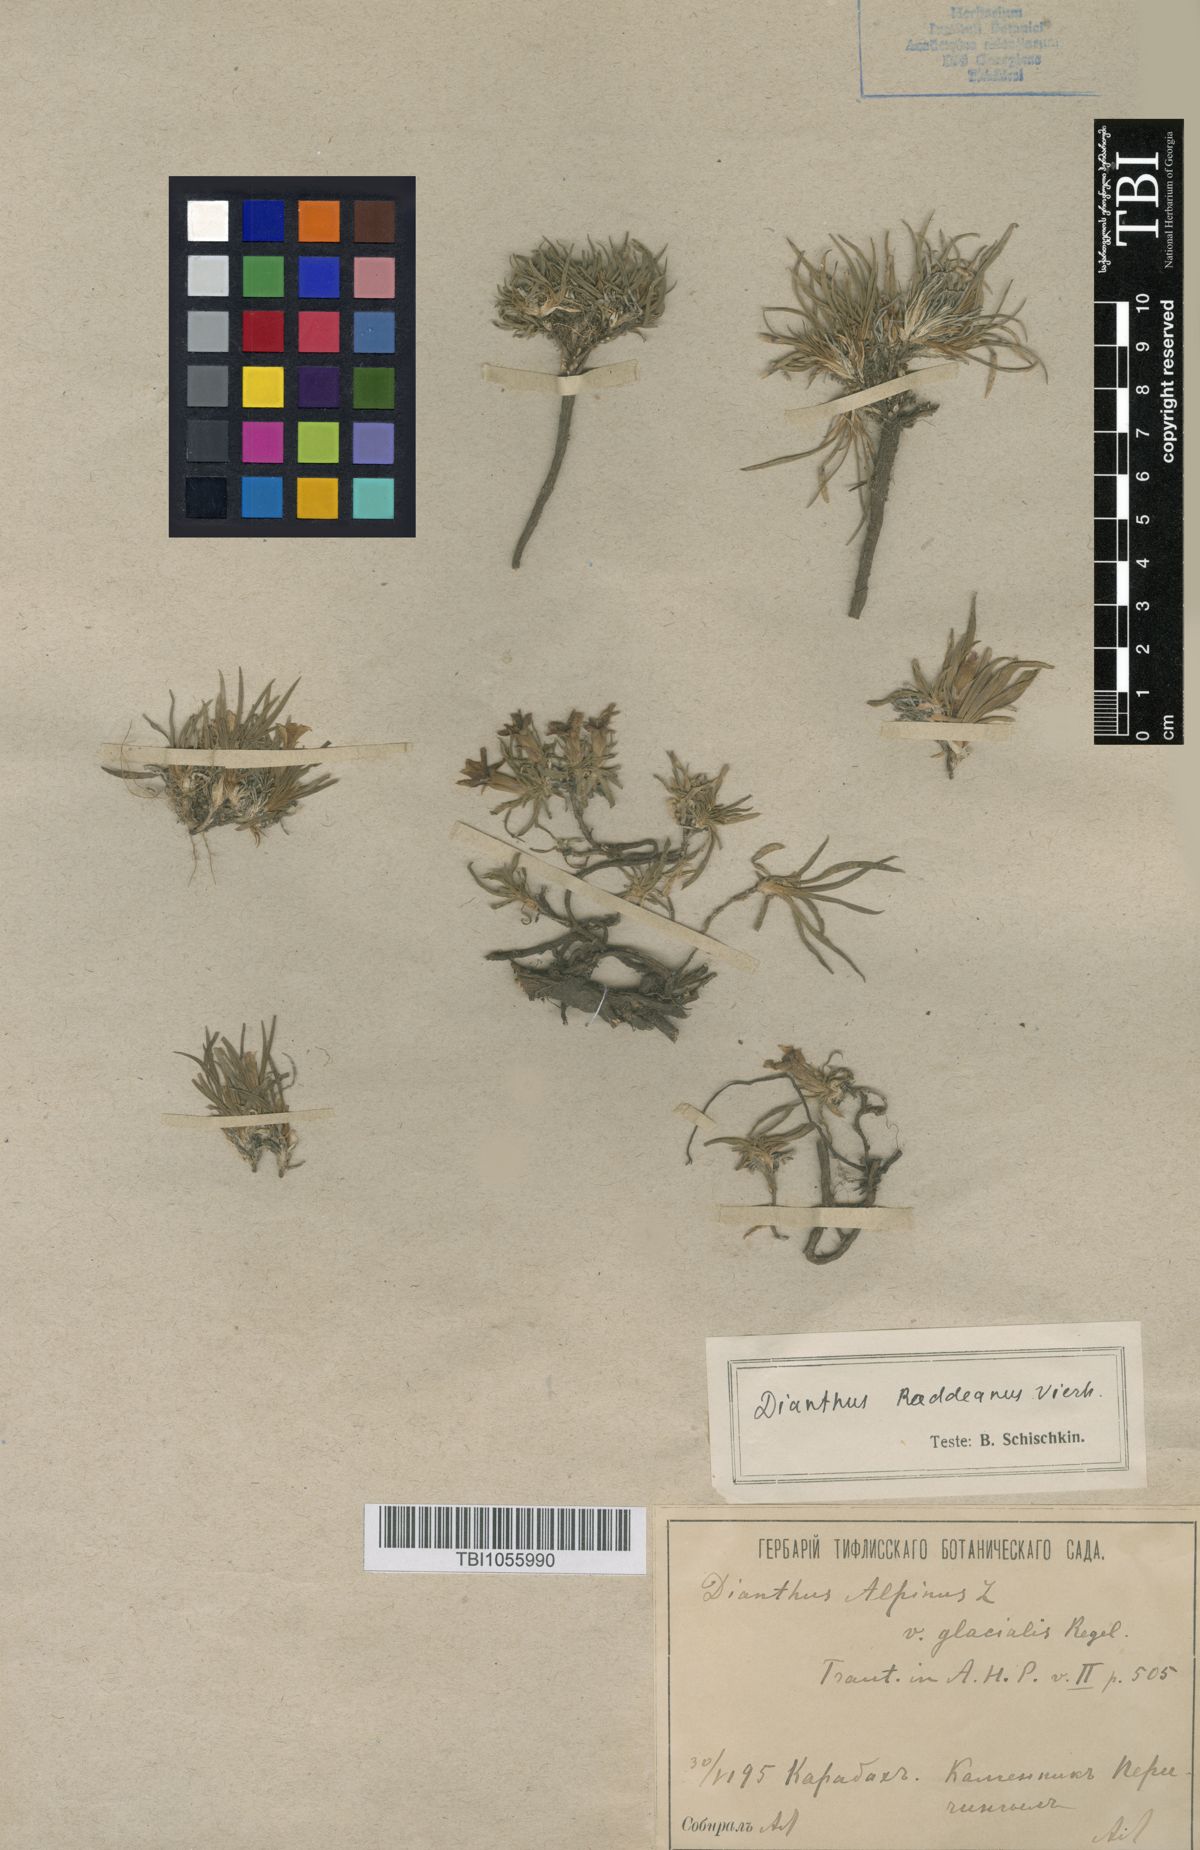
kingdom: Plantae
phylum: Tracheophyta
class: Magnoliopsida
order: Caryophyllales
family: Caryophyllaceae
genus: Dianthus
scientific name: Dianthus raddeanus
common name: Radde's pink
